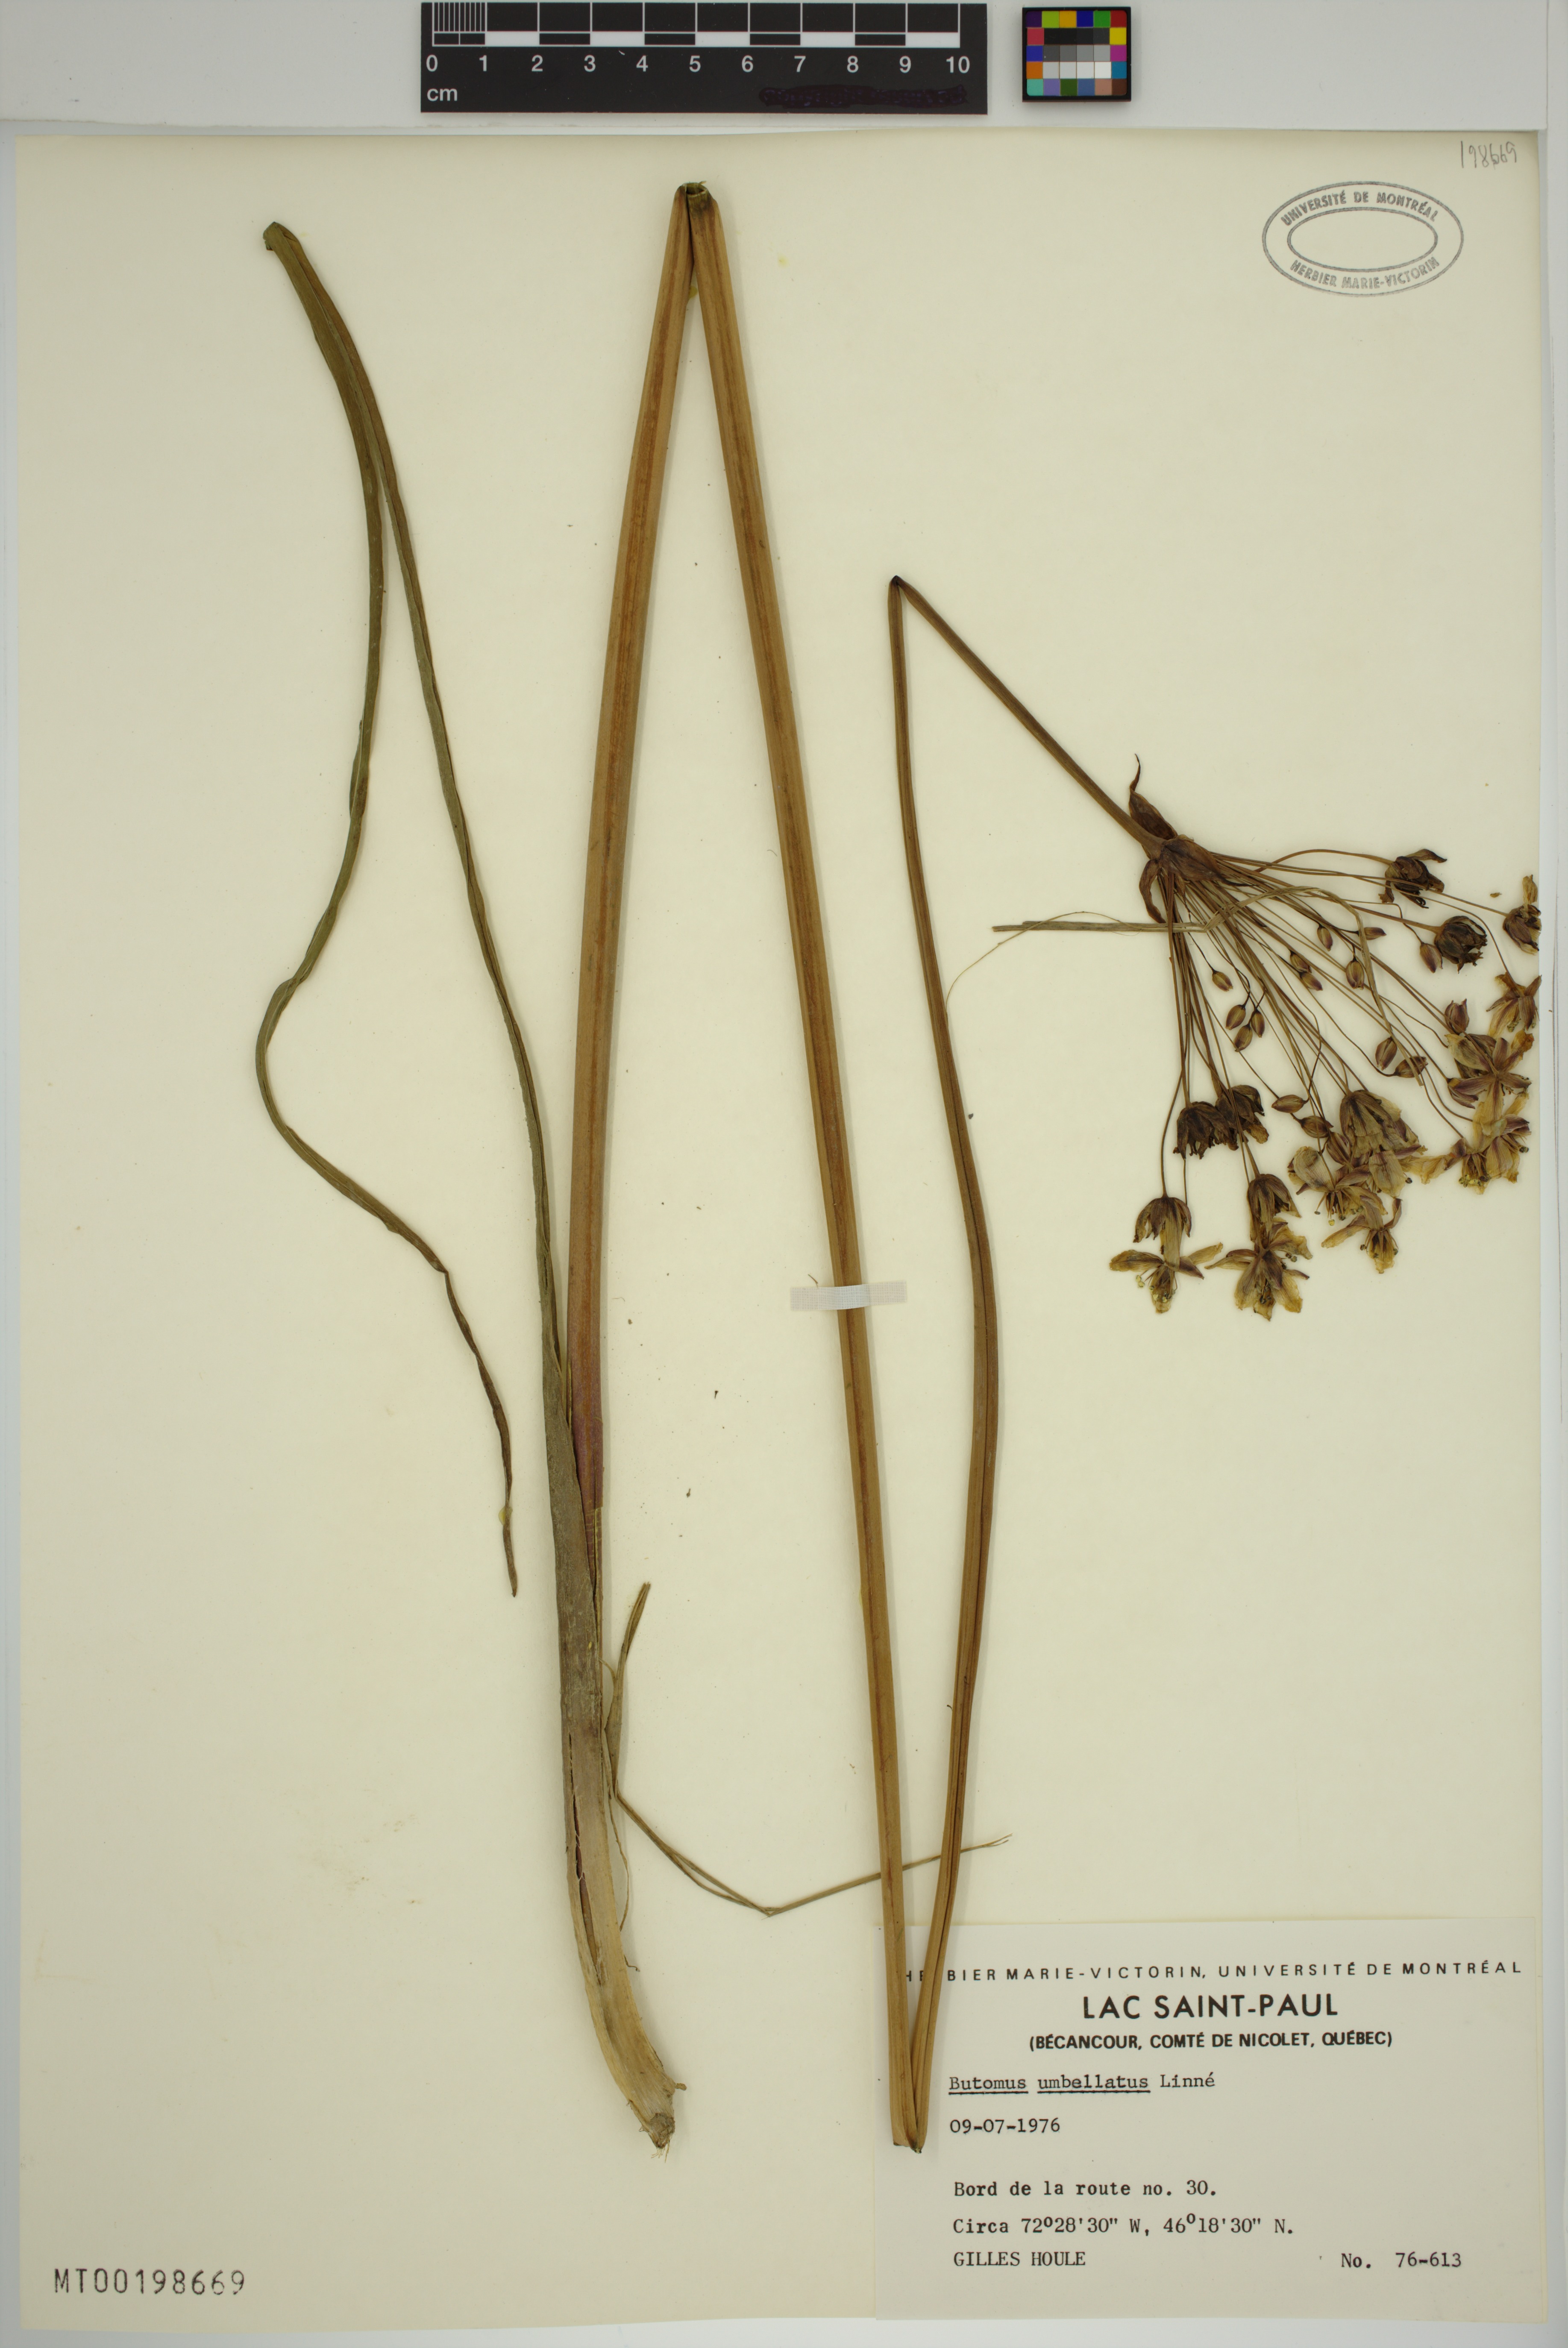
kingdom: Plantae
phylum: Tracheophyta
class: Liliopsida
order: Alismatales
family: Butomaceae
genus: Butomus
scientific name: Butomus umbellatus
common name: Flowering-rush
